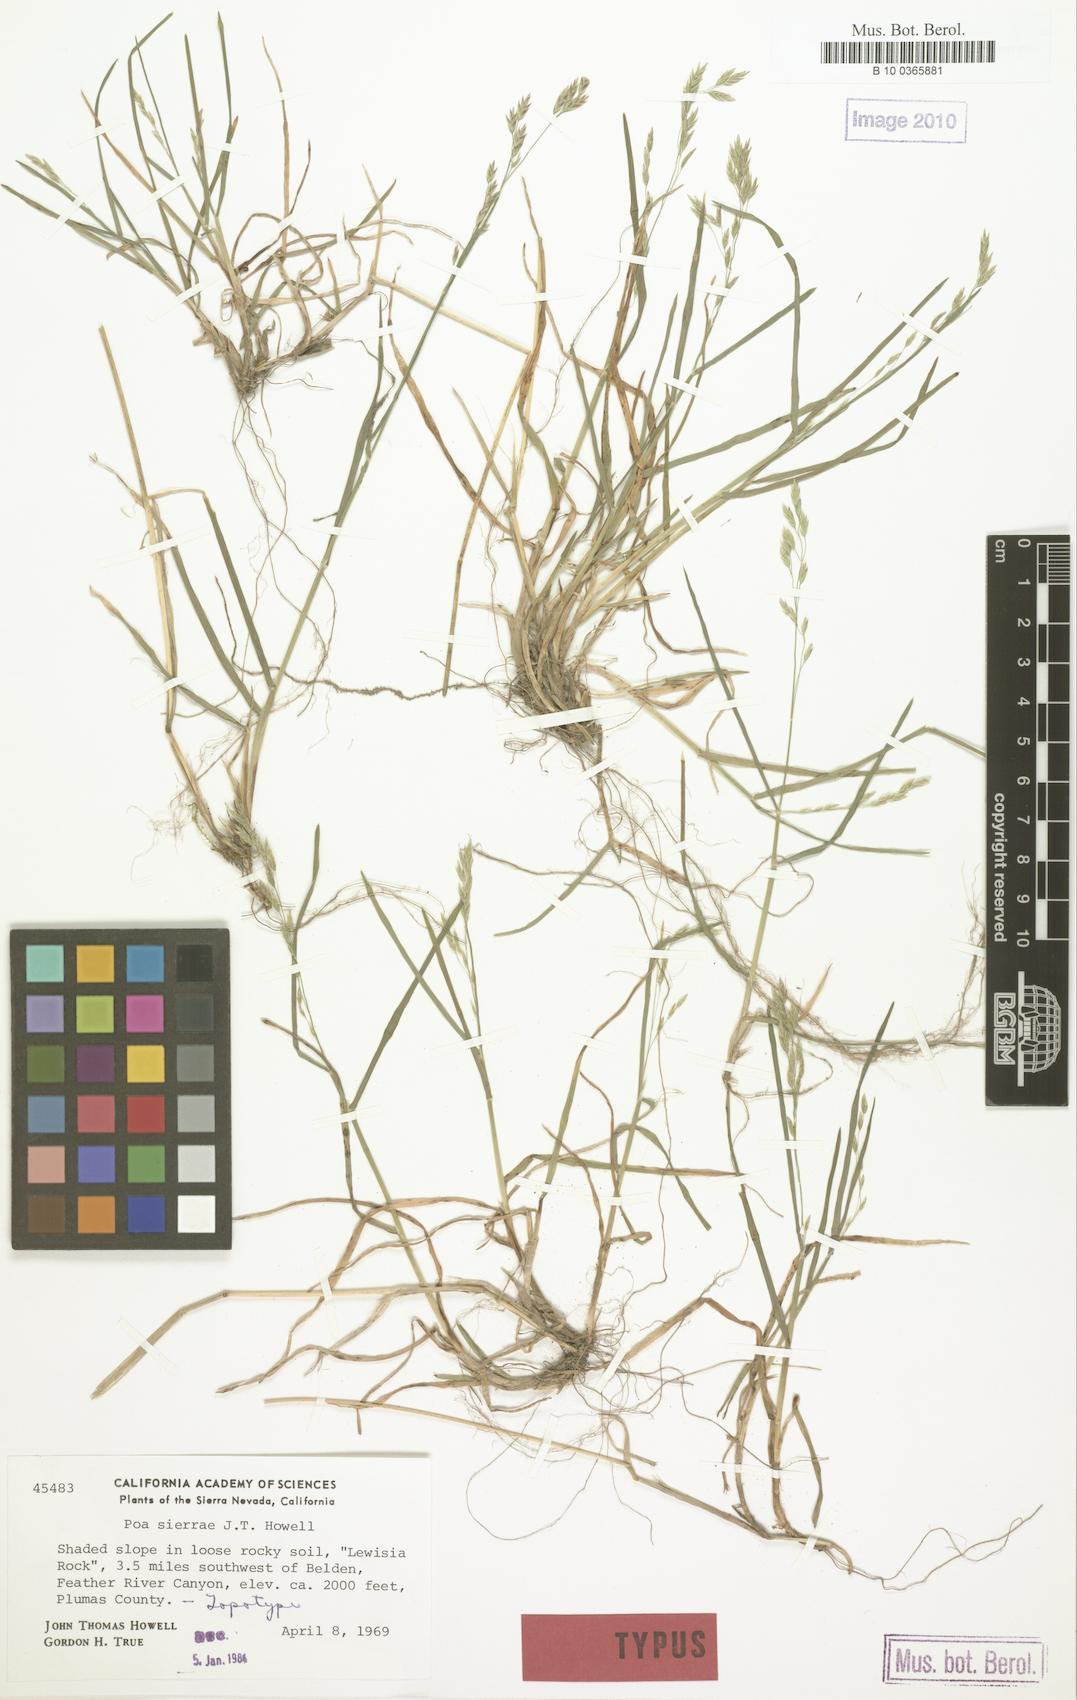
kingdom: Plantae
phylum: Tracheophyta
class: Liliopsida
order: Poales
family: Poaceae
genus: Poa
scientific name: Poa sierrae
